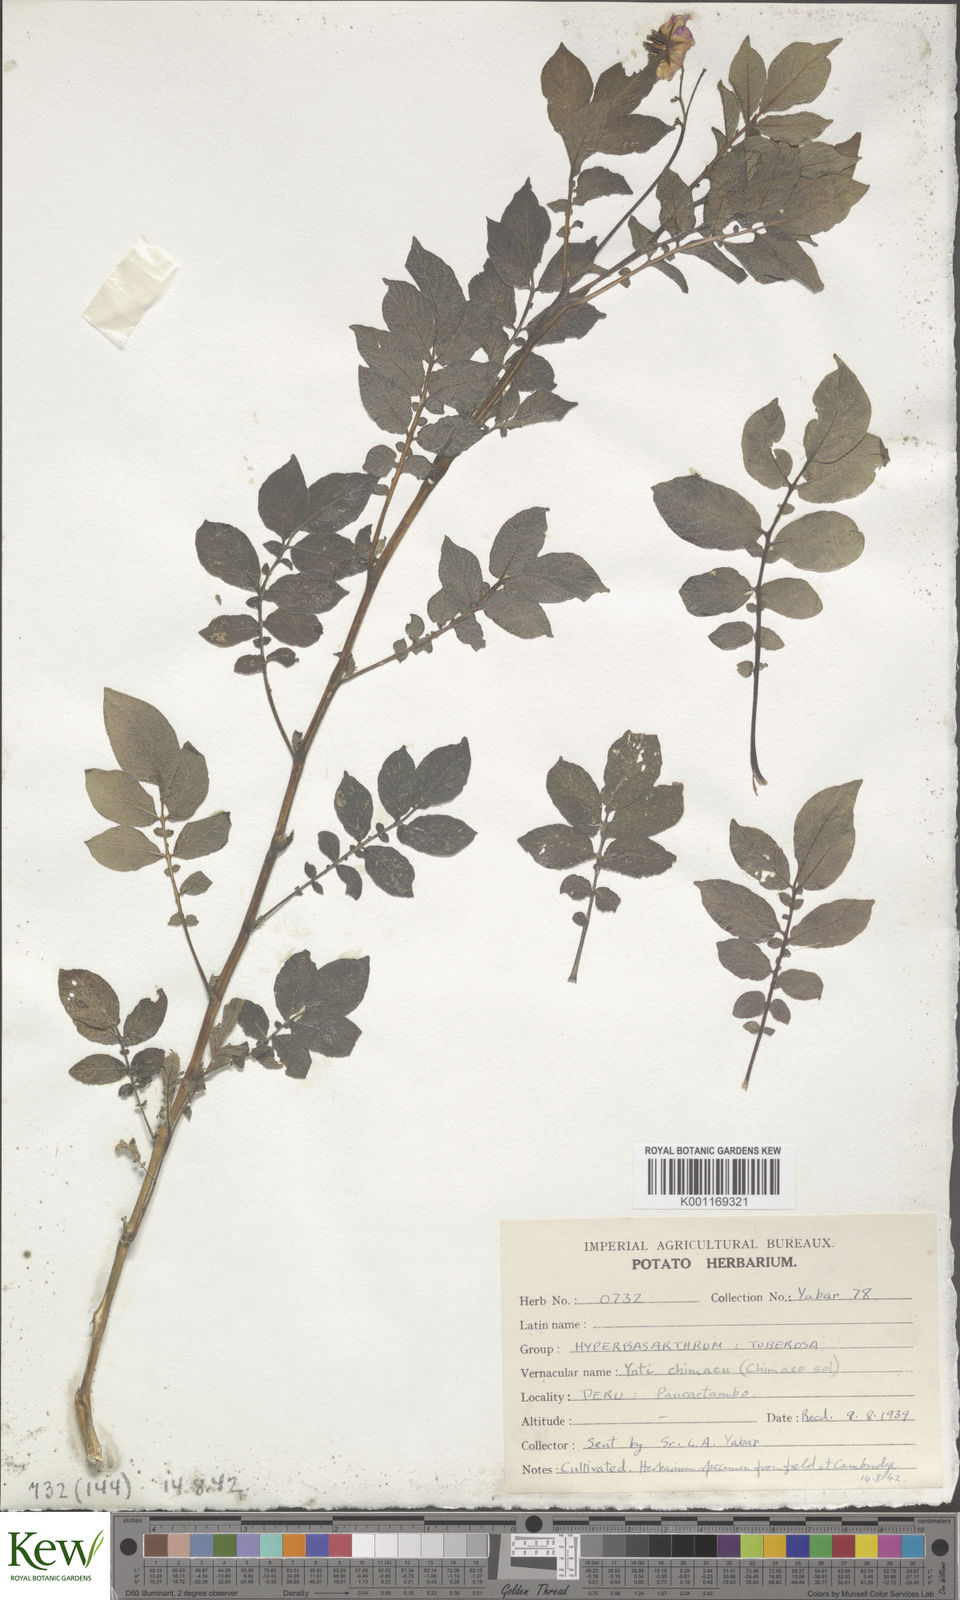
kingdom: Plantae
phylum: Tracheophyta
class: Magnoliopsida
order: Solanales
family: Solanaceae
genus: Solanum
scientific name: Solanum chaucha
